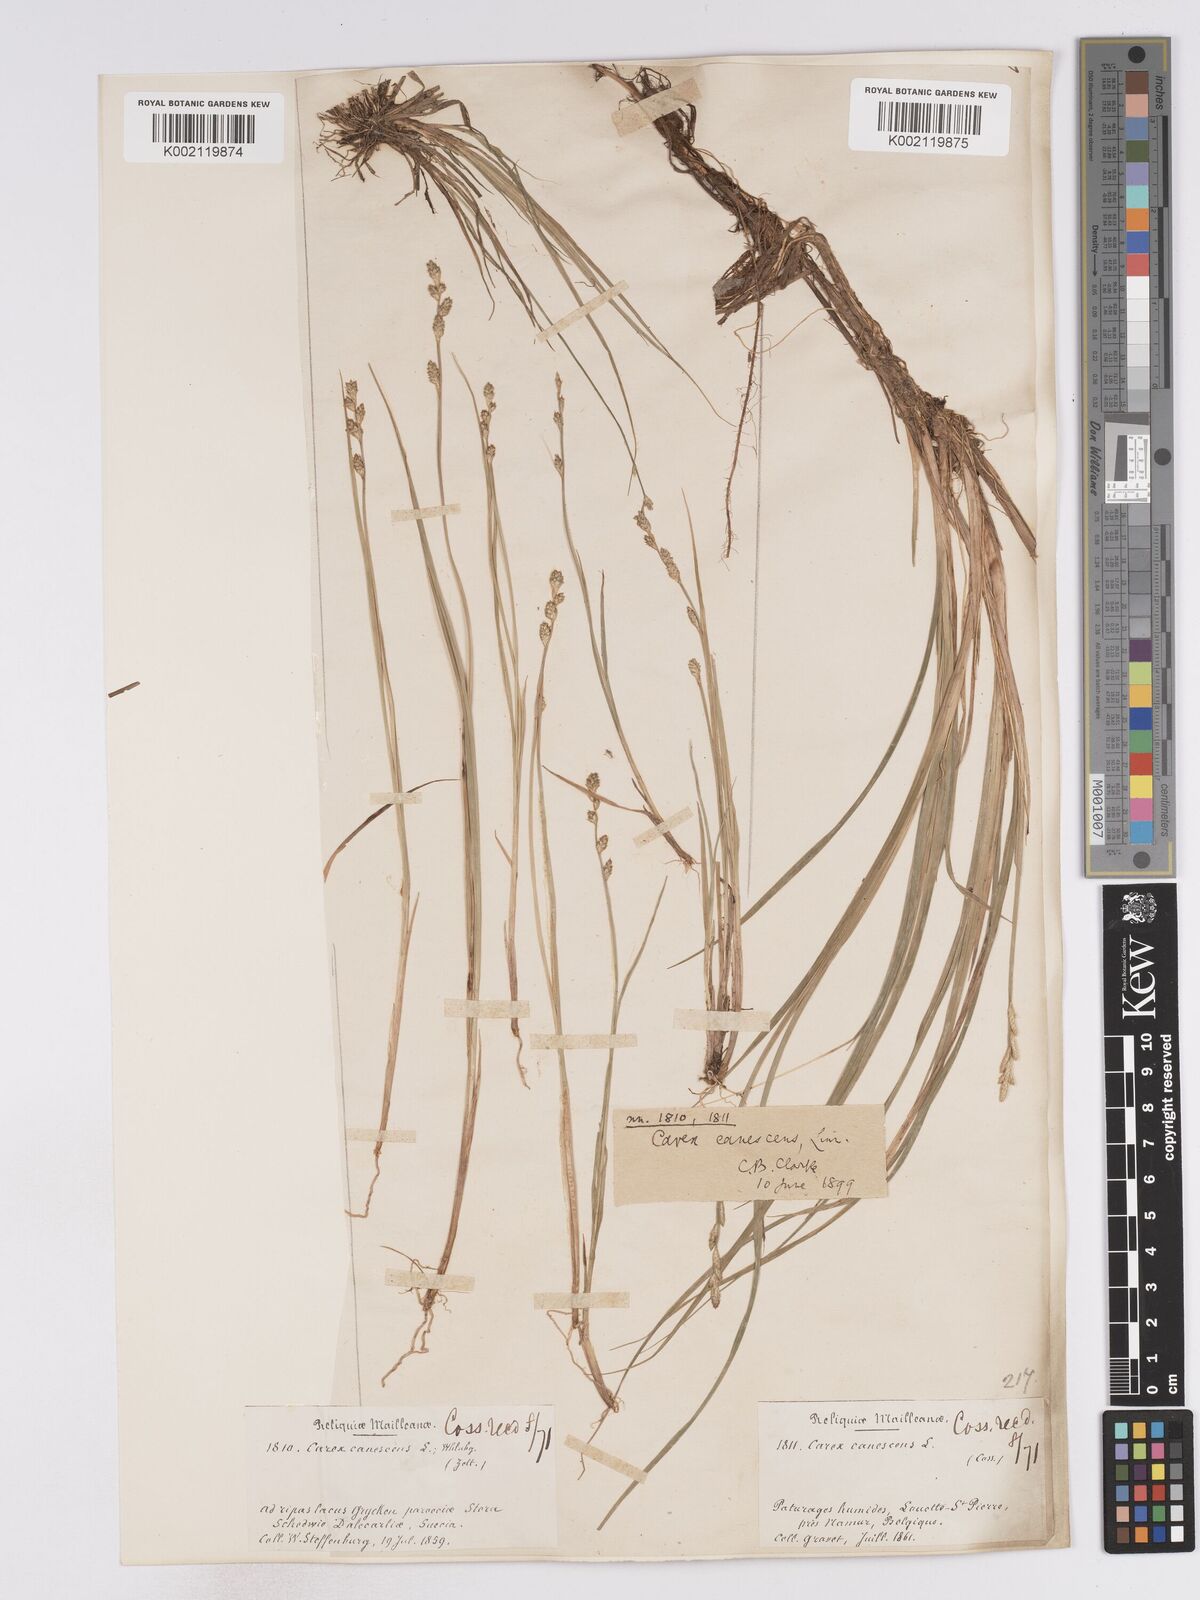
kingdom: Plantae
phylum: Tracheophyta
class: Liliopsida
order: Poales
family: Cyperaceae
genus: Carex
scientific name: Carex curta
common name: White sedge
